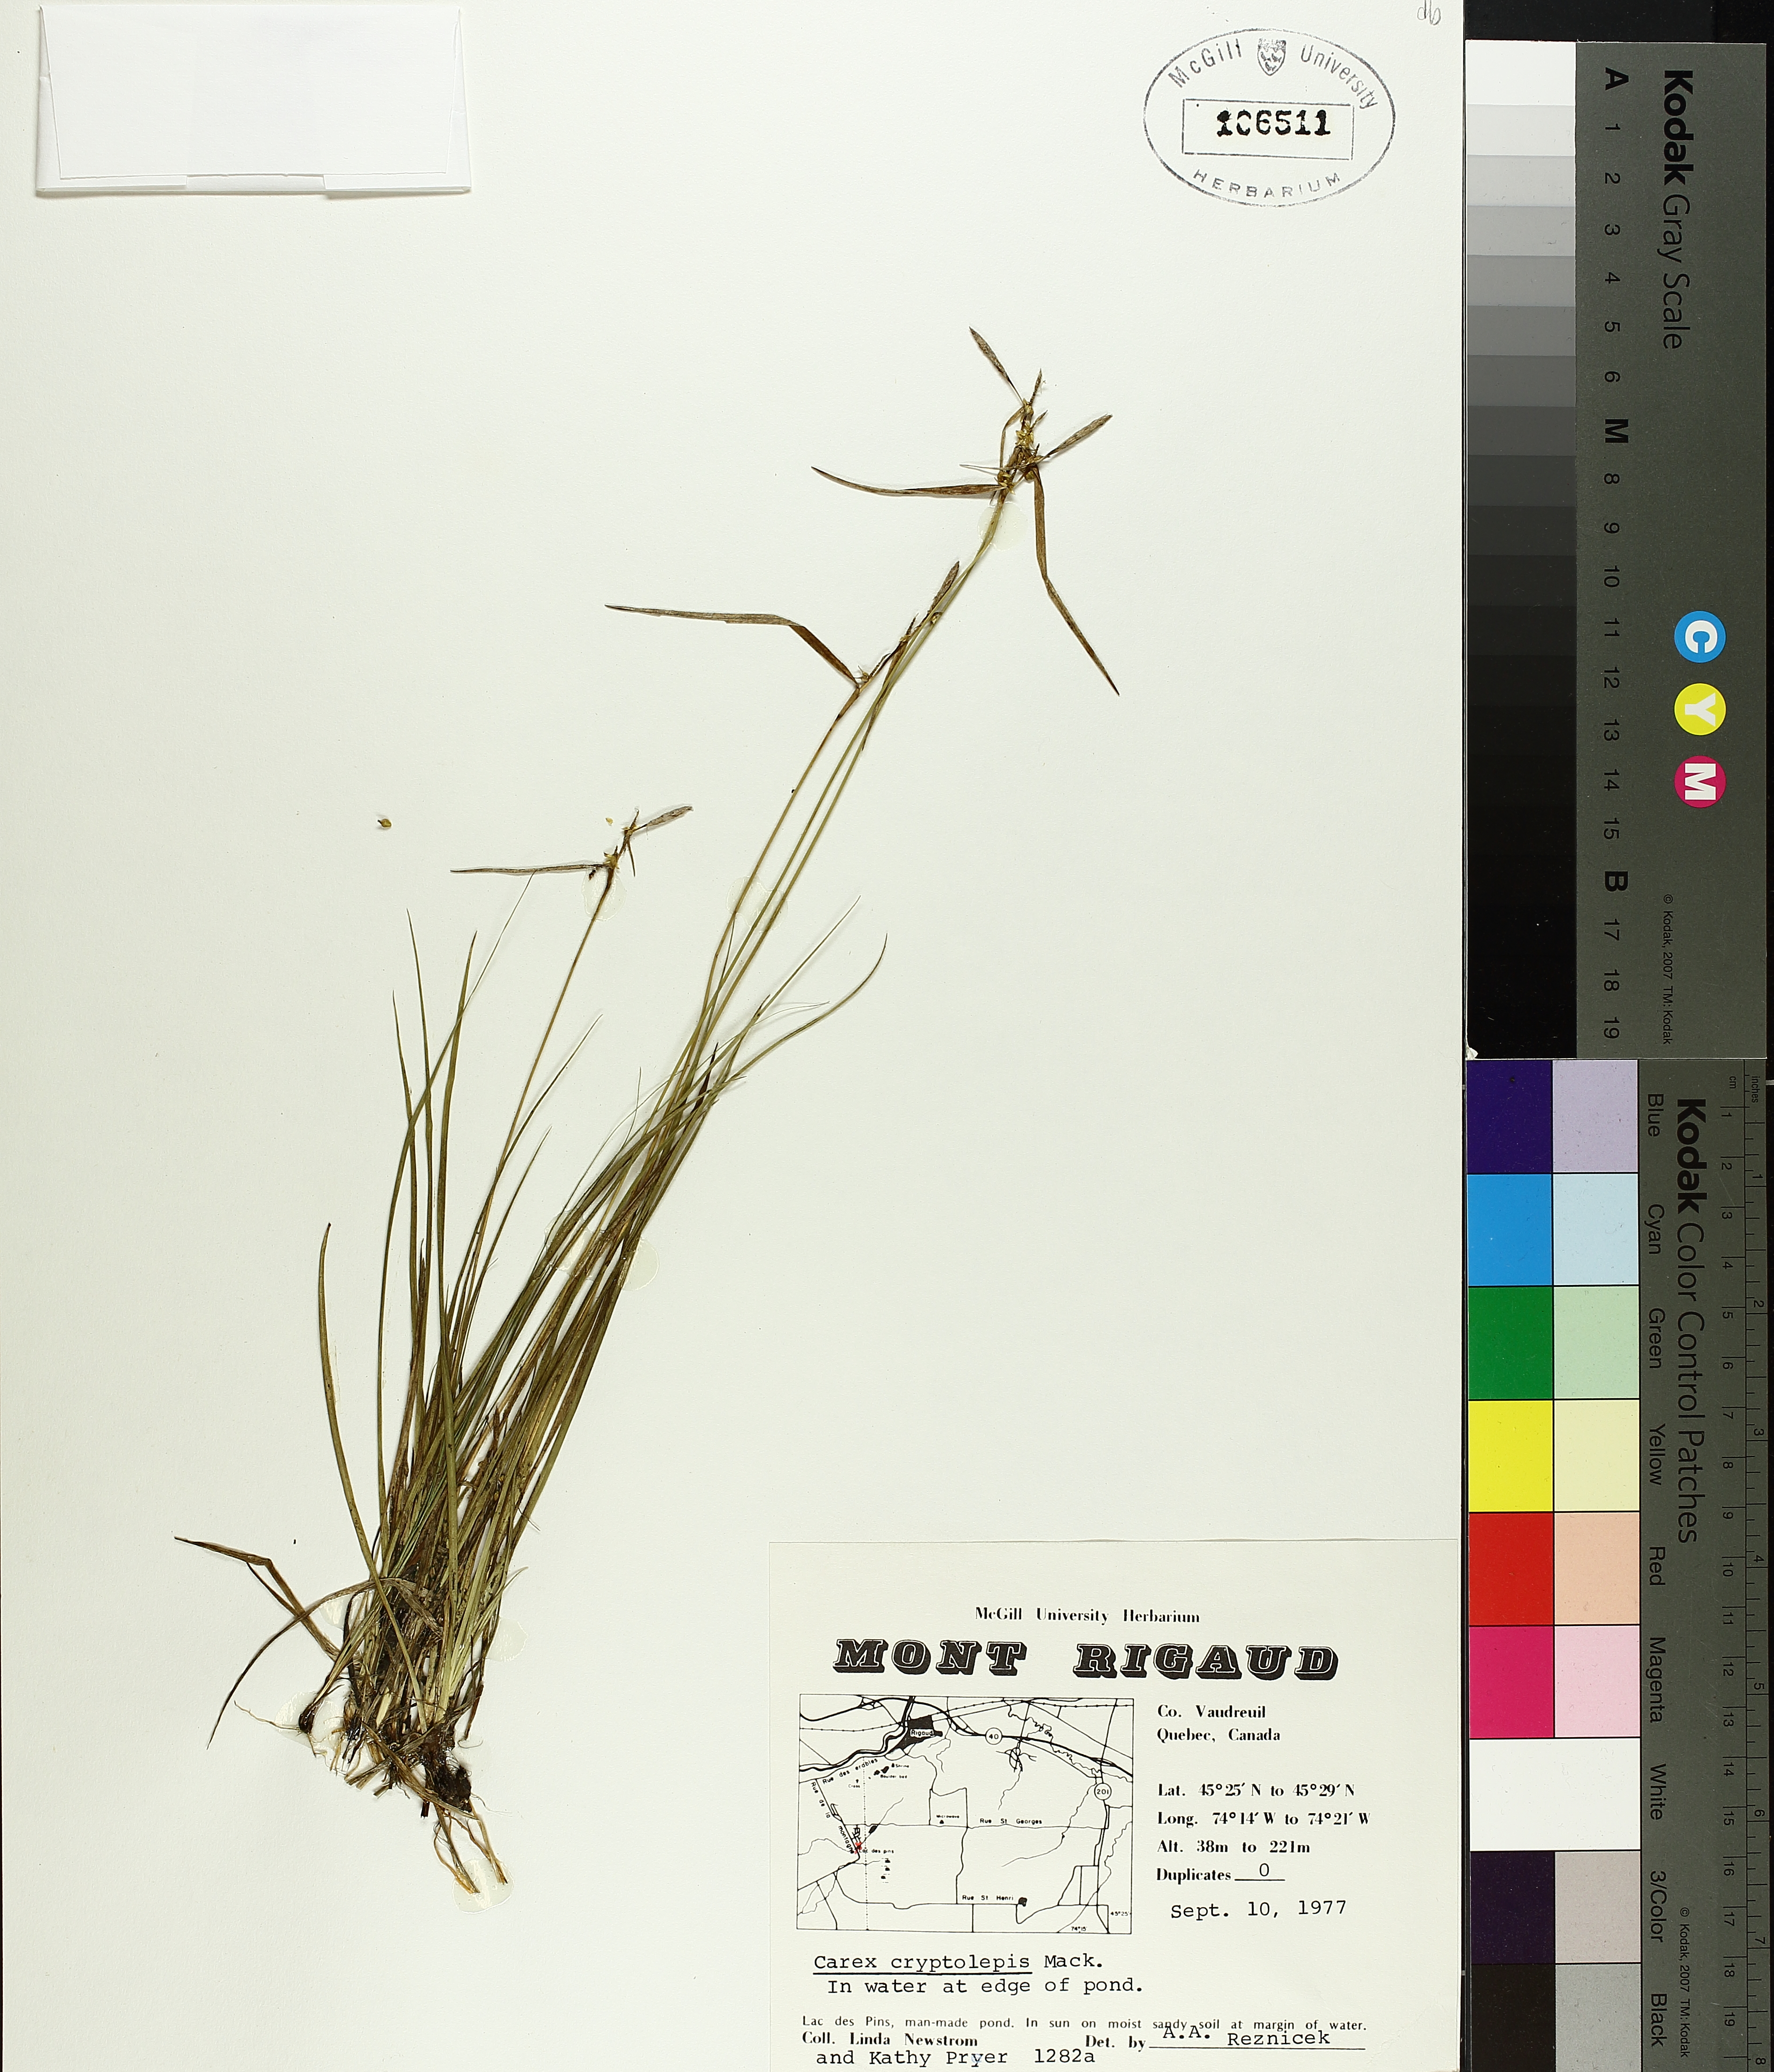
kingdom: Plantae
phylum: Tracheophyta
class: Liliopsida
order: Poales
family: Cyperaceae
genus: Carex
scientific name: Carex cryptolepis
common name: Northeastern sedge
